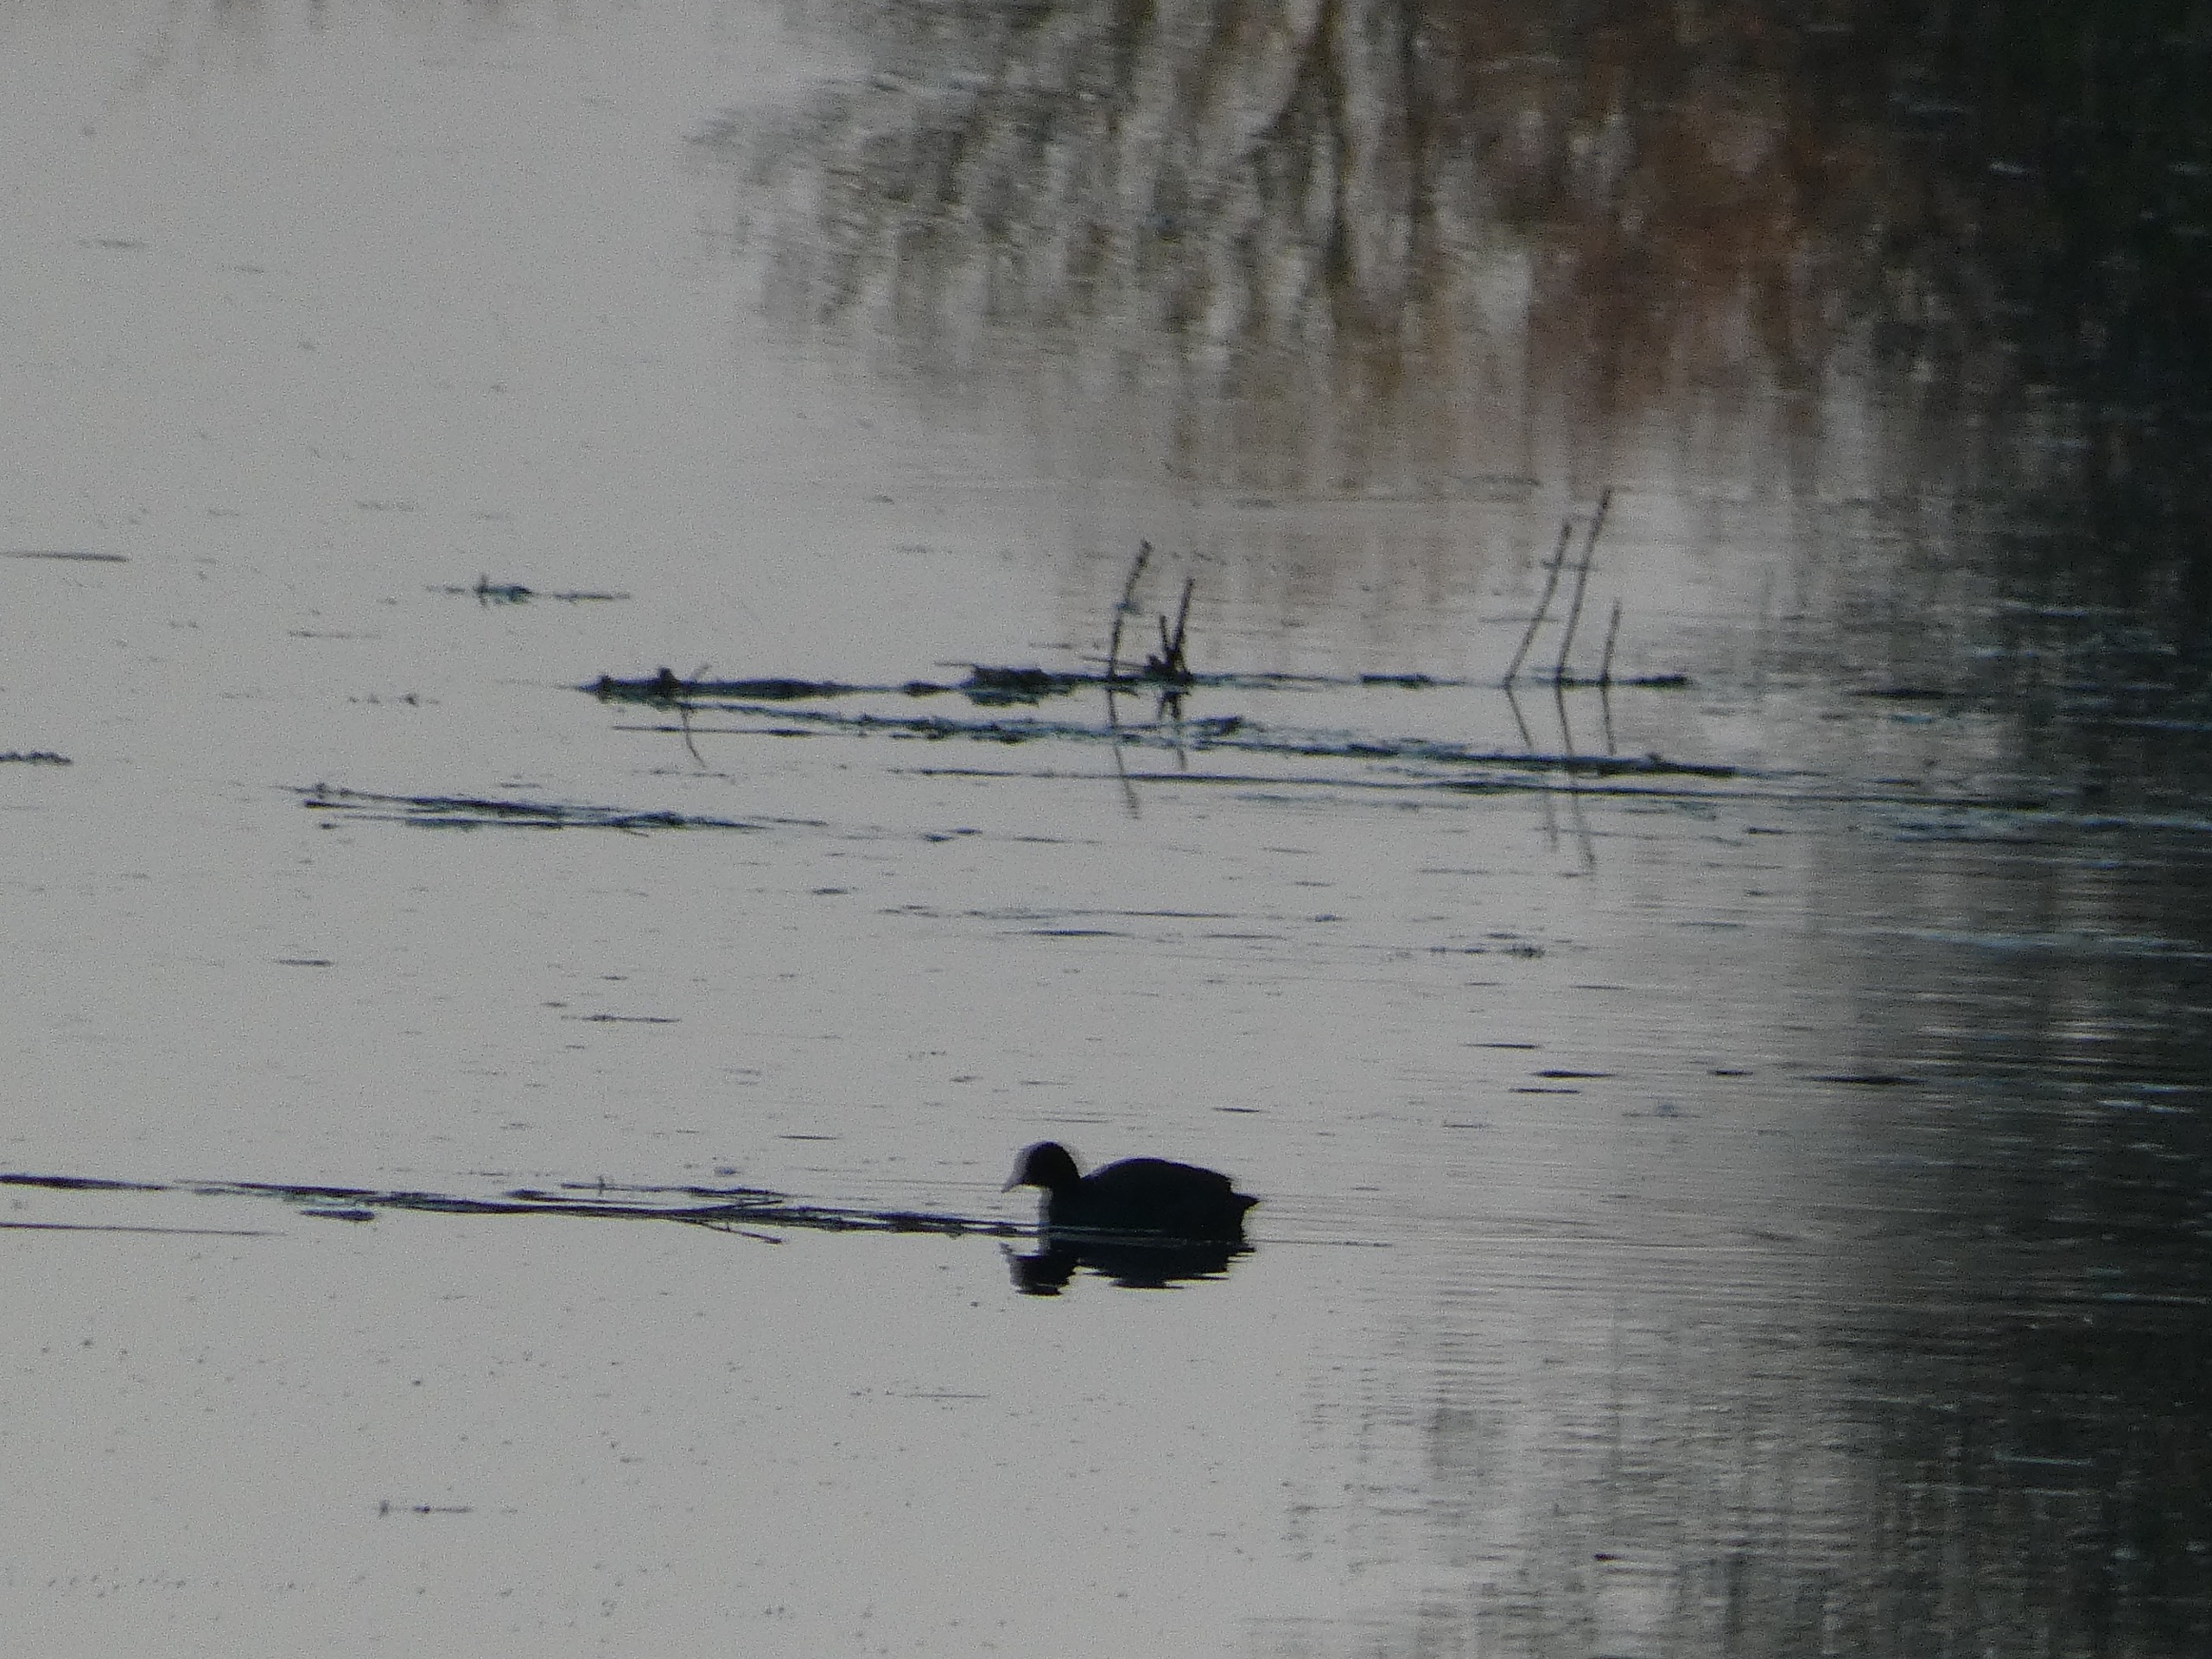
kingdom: Animalia
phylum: Chordata
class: Aves
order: Gruiformes
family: Rallidae
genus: Fulica
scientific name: Fulica atra
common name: Blishøne
